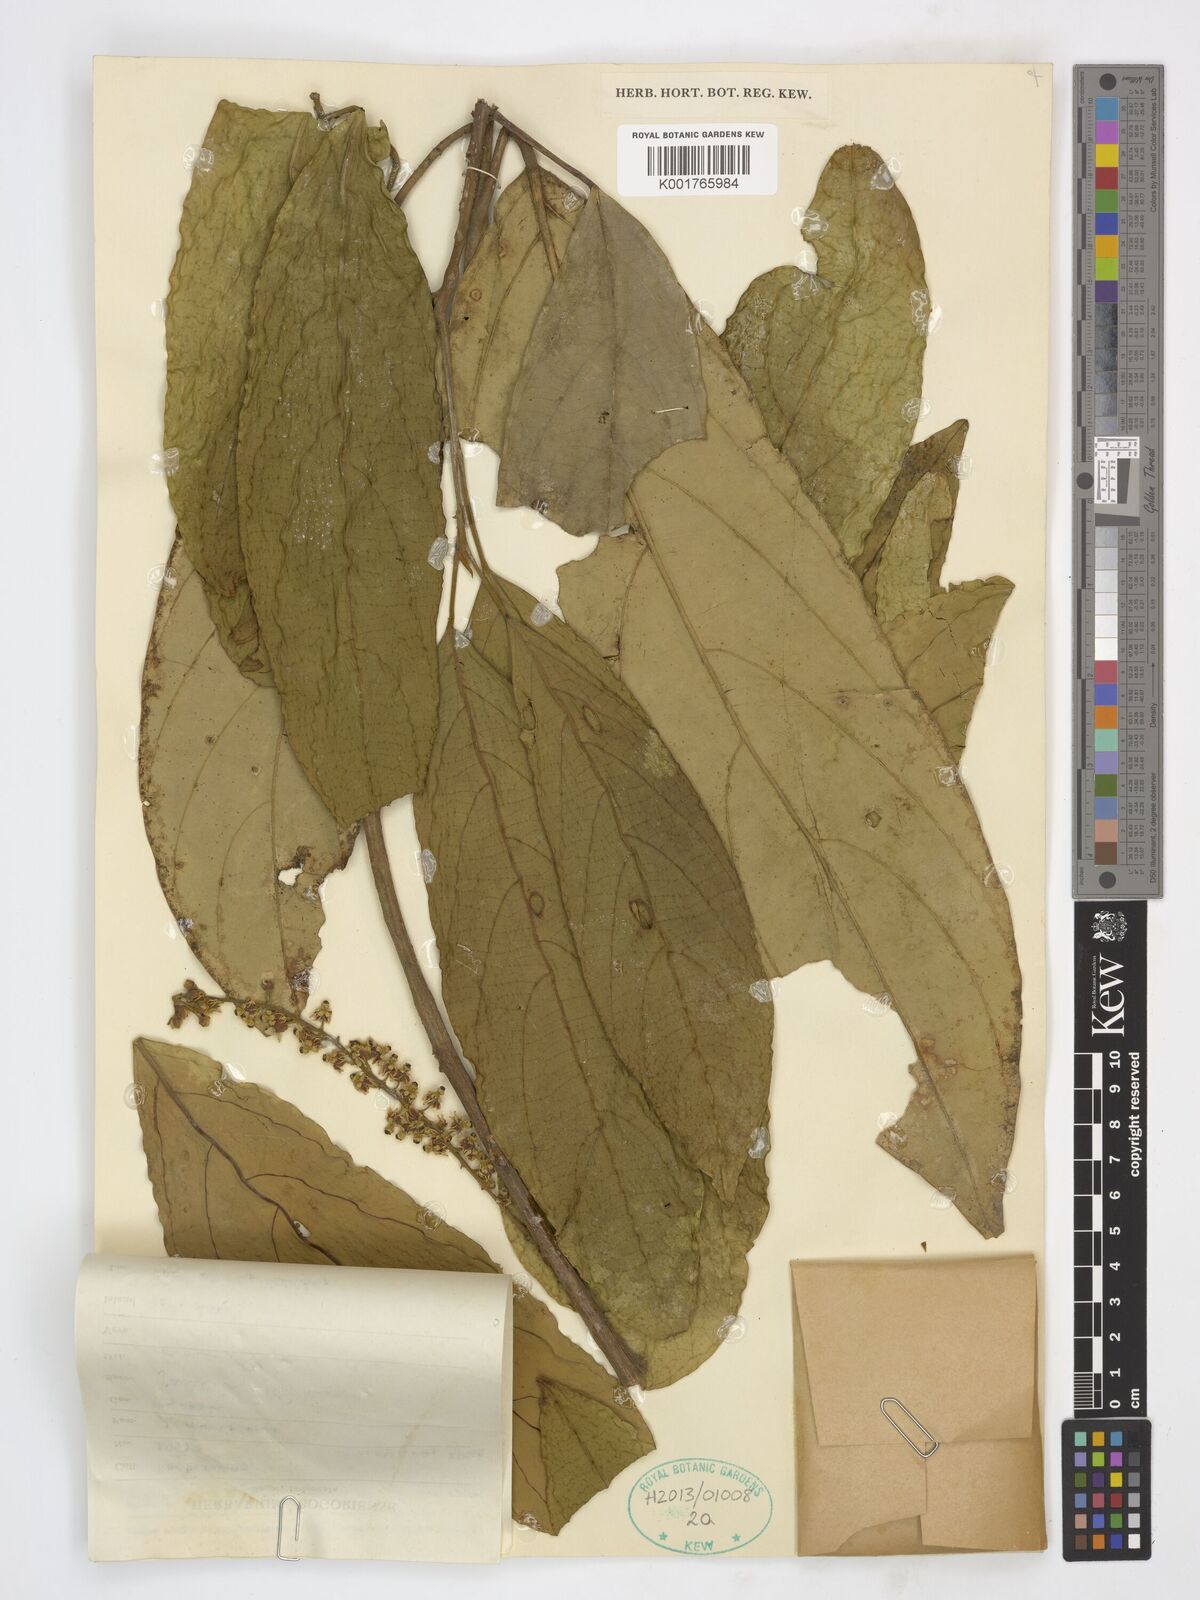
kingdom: Plantae
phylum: Tracheophyta
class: Magnoliopsida
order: Malpighiales
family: Achariaceae
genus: Ryparosa
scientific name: Ryparosa javanica
